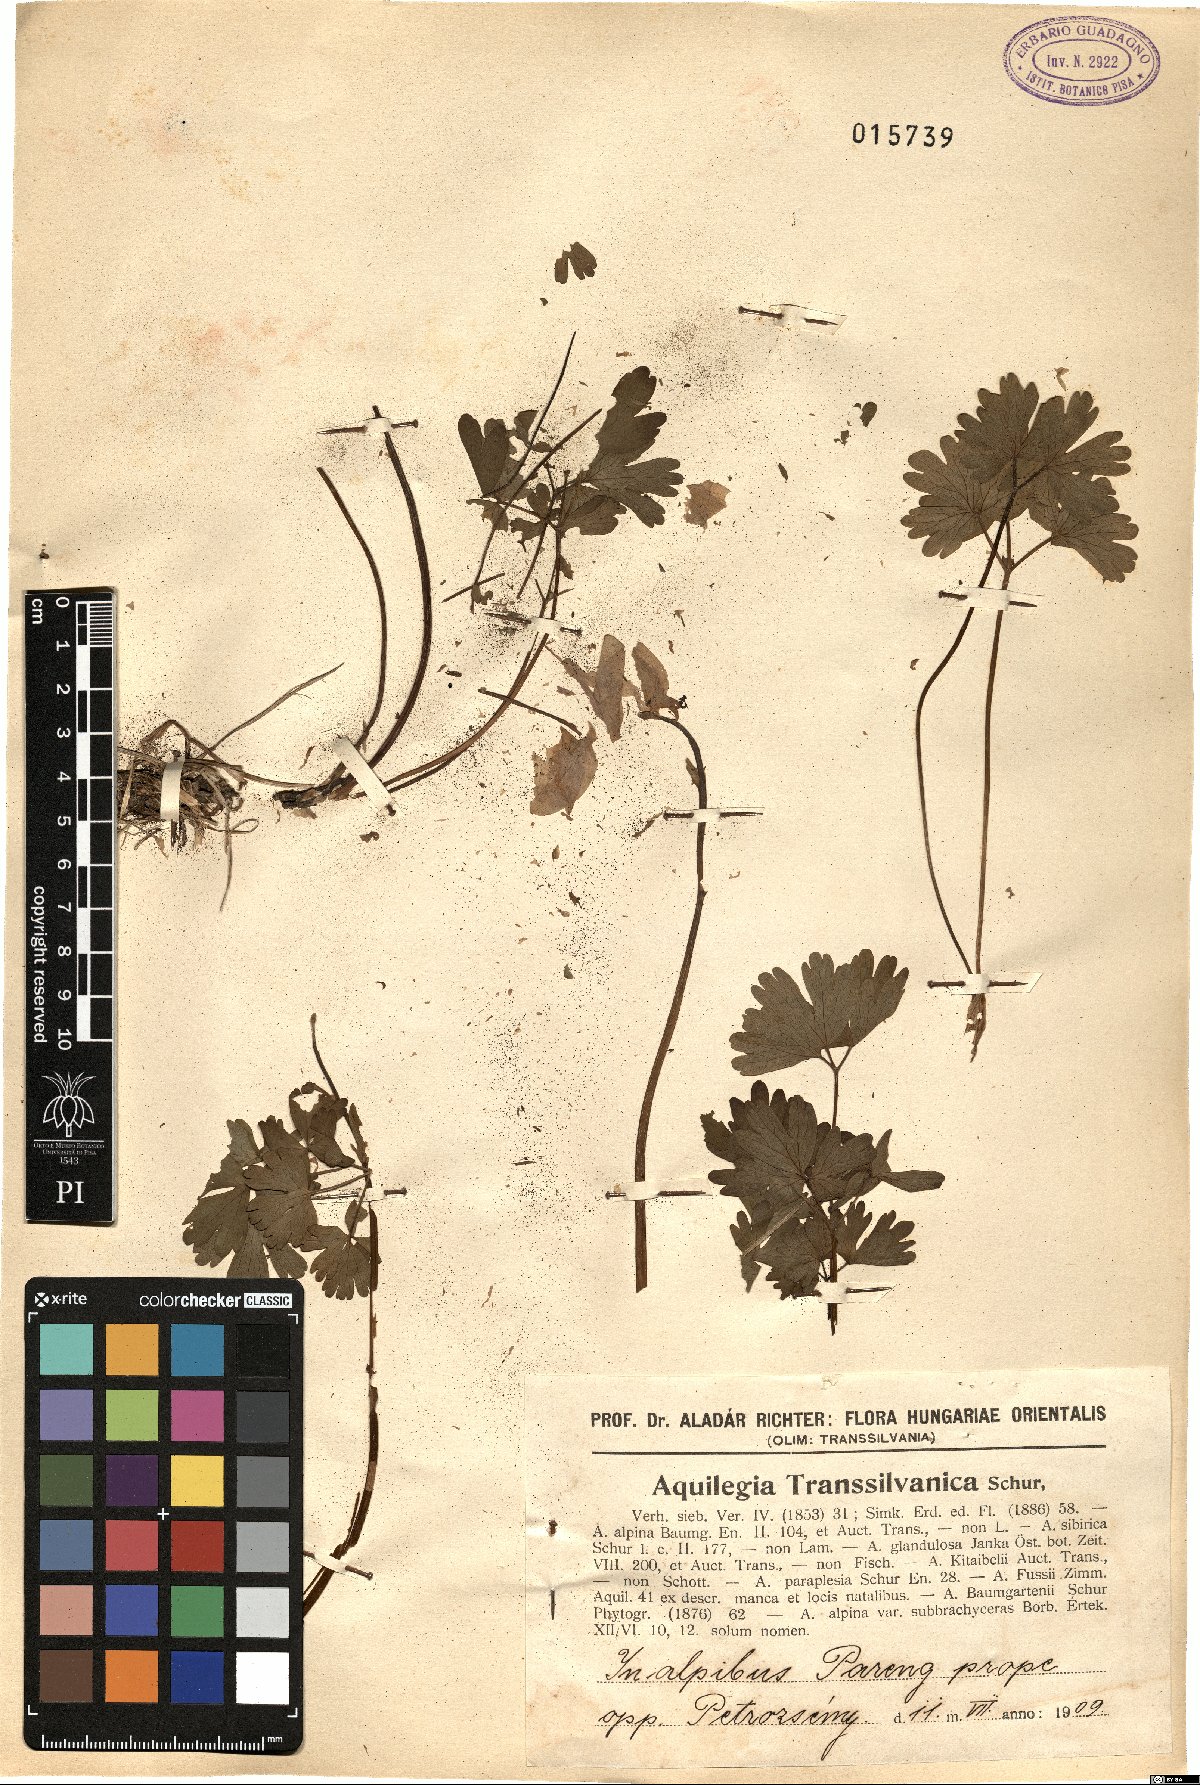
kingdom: Plantae
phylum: Tracheophyta
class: Magnoliopsida
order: Ranunculales
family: Ranunculaceae
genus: Aquilegia
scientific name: Aquilegia transsilvanica
